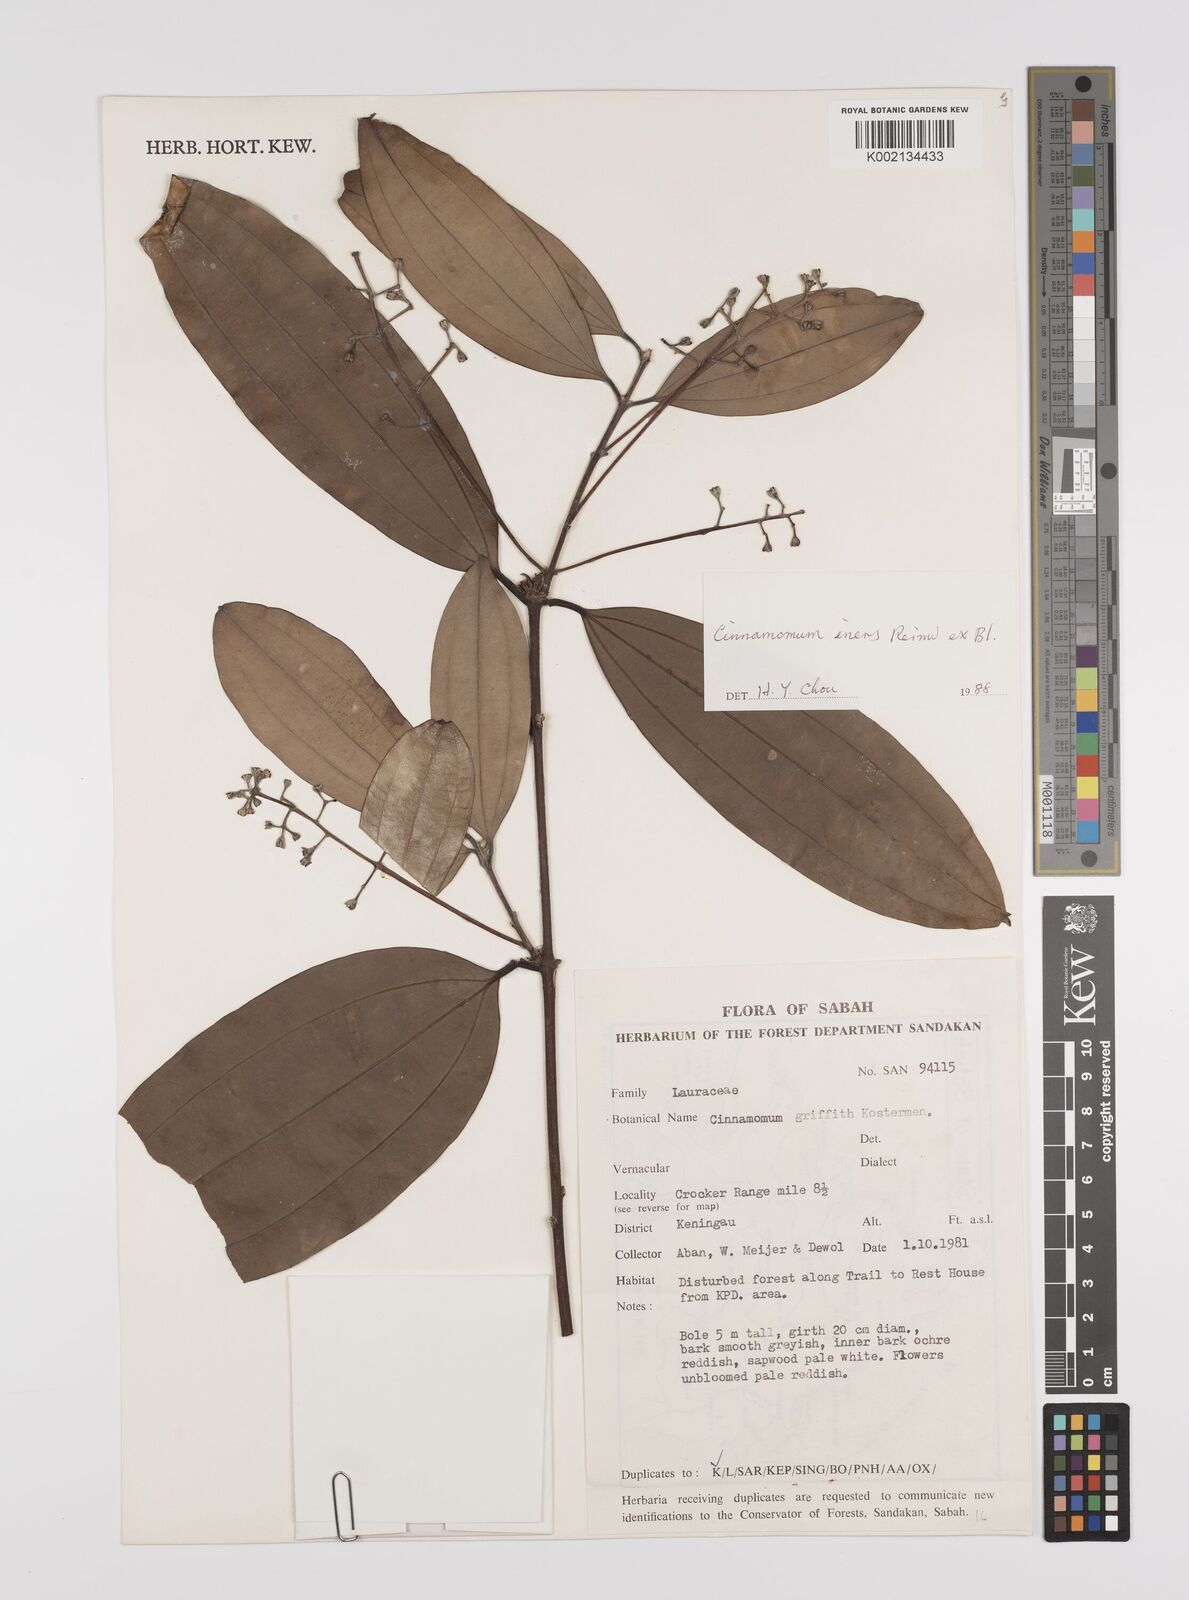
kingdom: Plantae
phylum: Tracheophyta
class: Magnoliopsida
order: Laurales
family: Lauraceae
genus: Cinnamomum
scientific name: Cinnamomum iners
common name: Wild cinnamon
